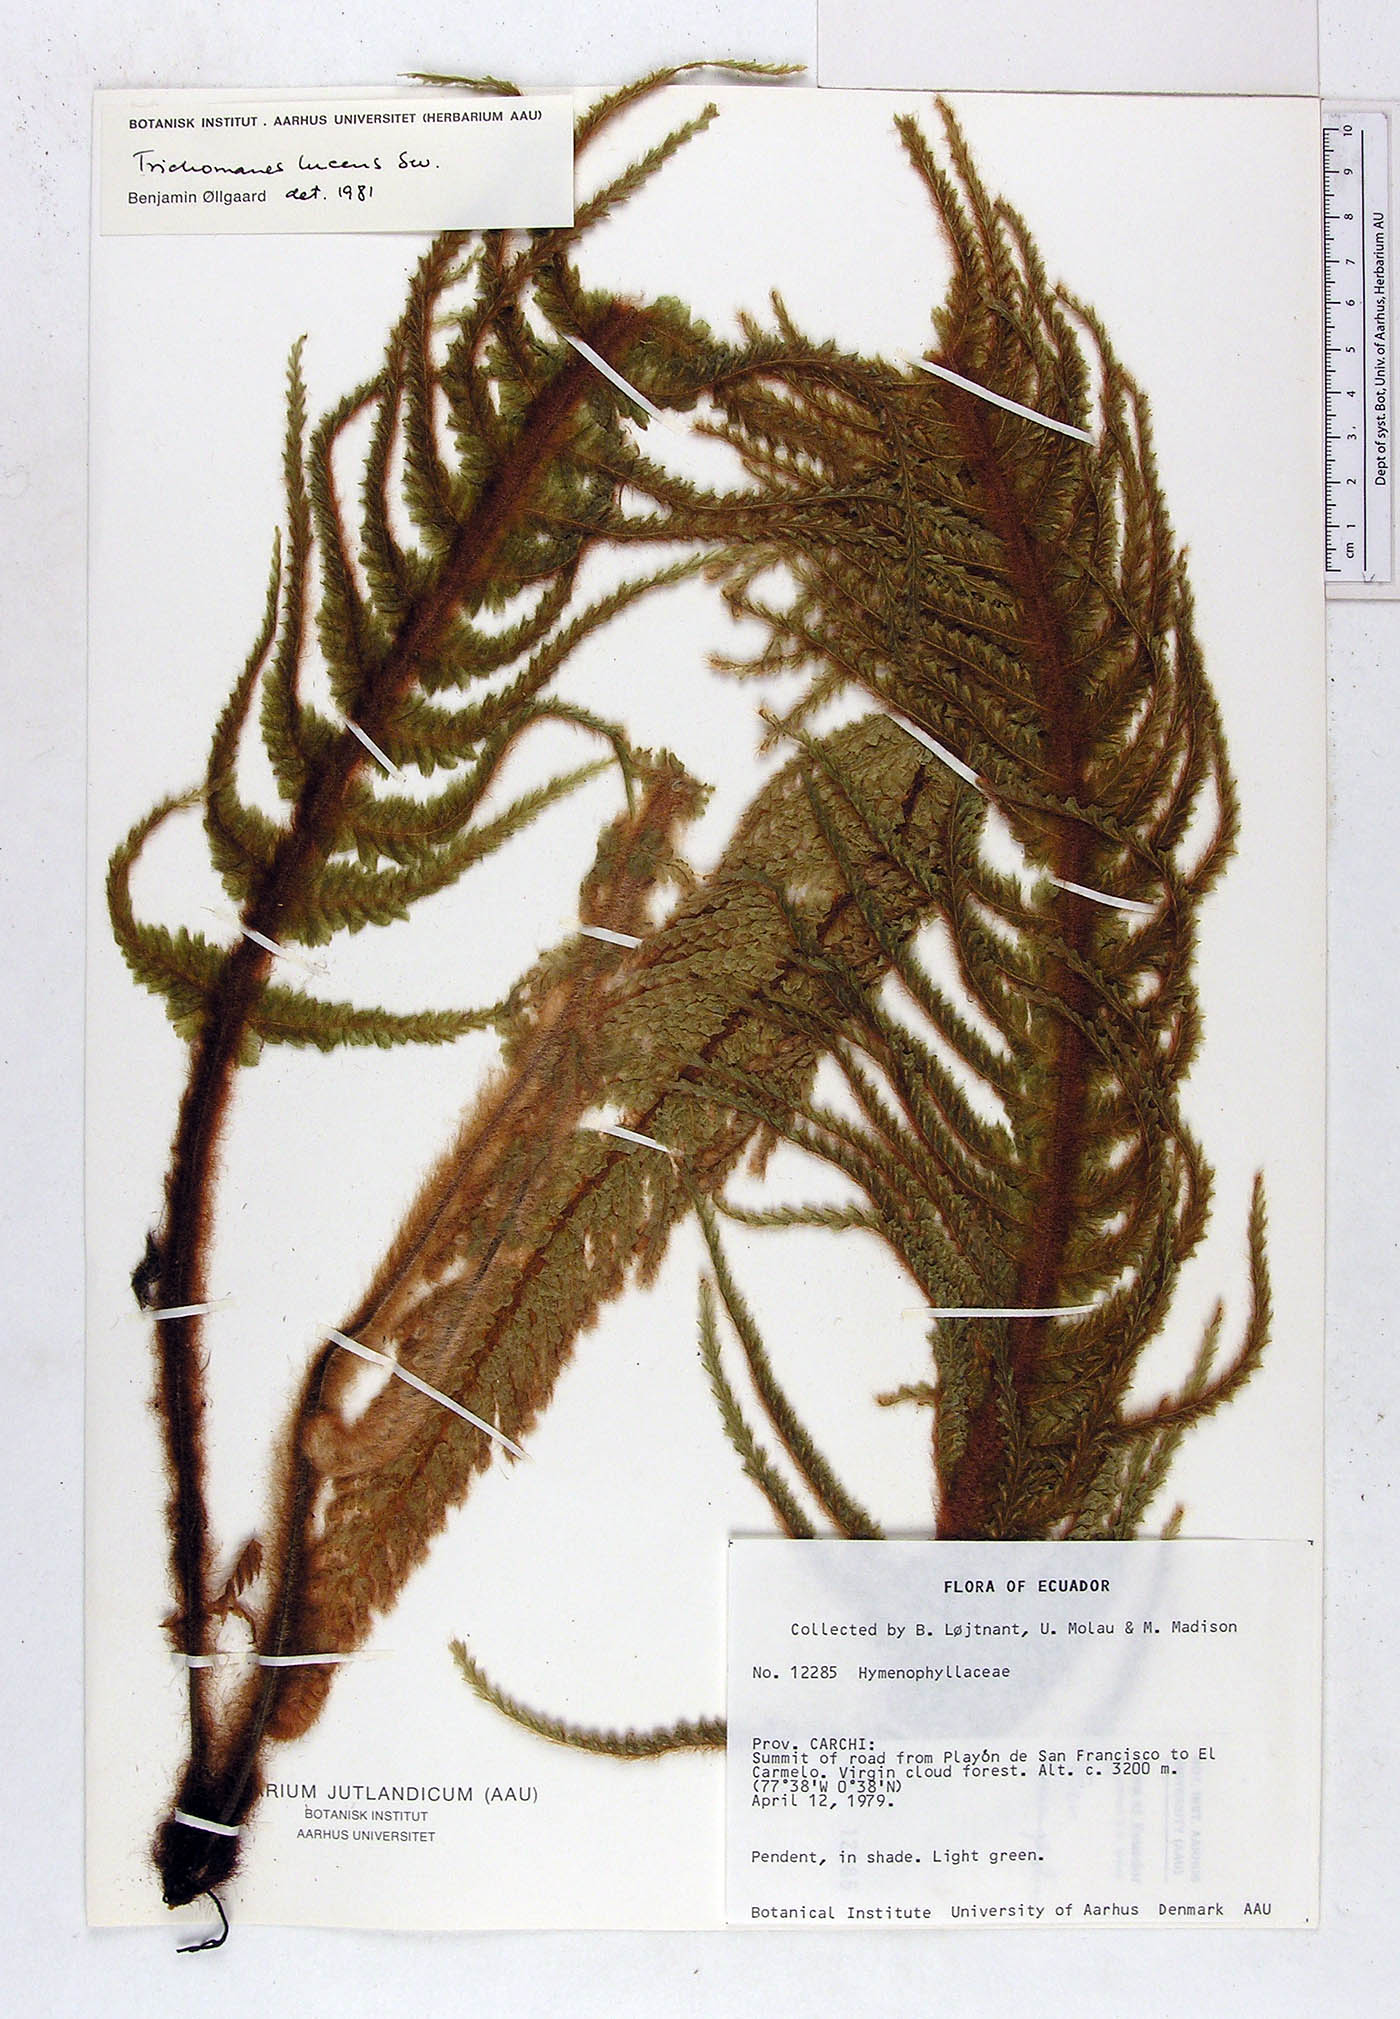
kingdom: Plantae
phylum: Tracheophyta
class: Polypodiopsida
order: Hymenophyllales
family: Hymenophyllaceae
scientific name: Hymenophyllaceae
